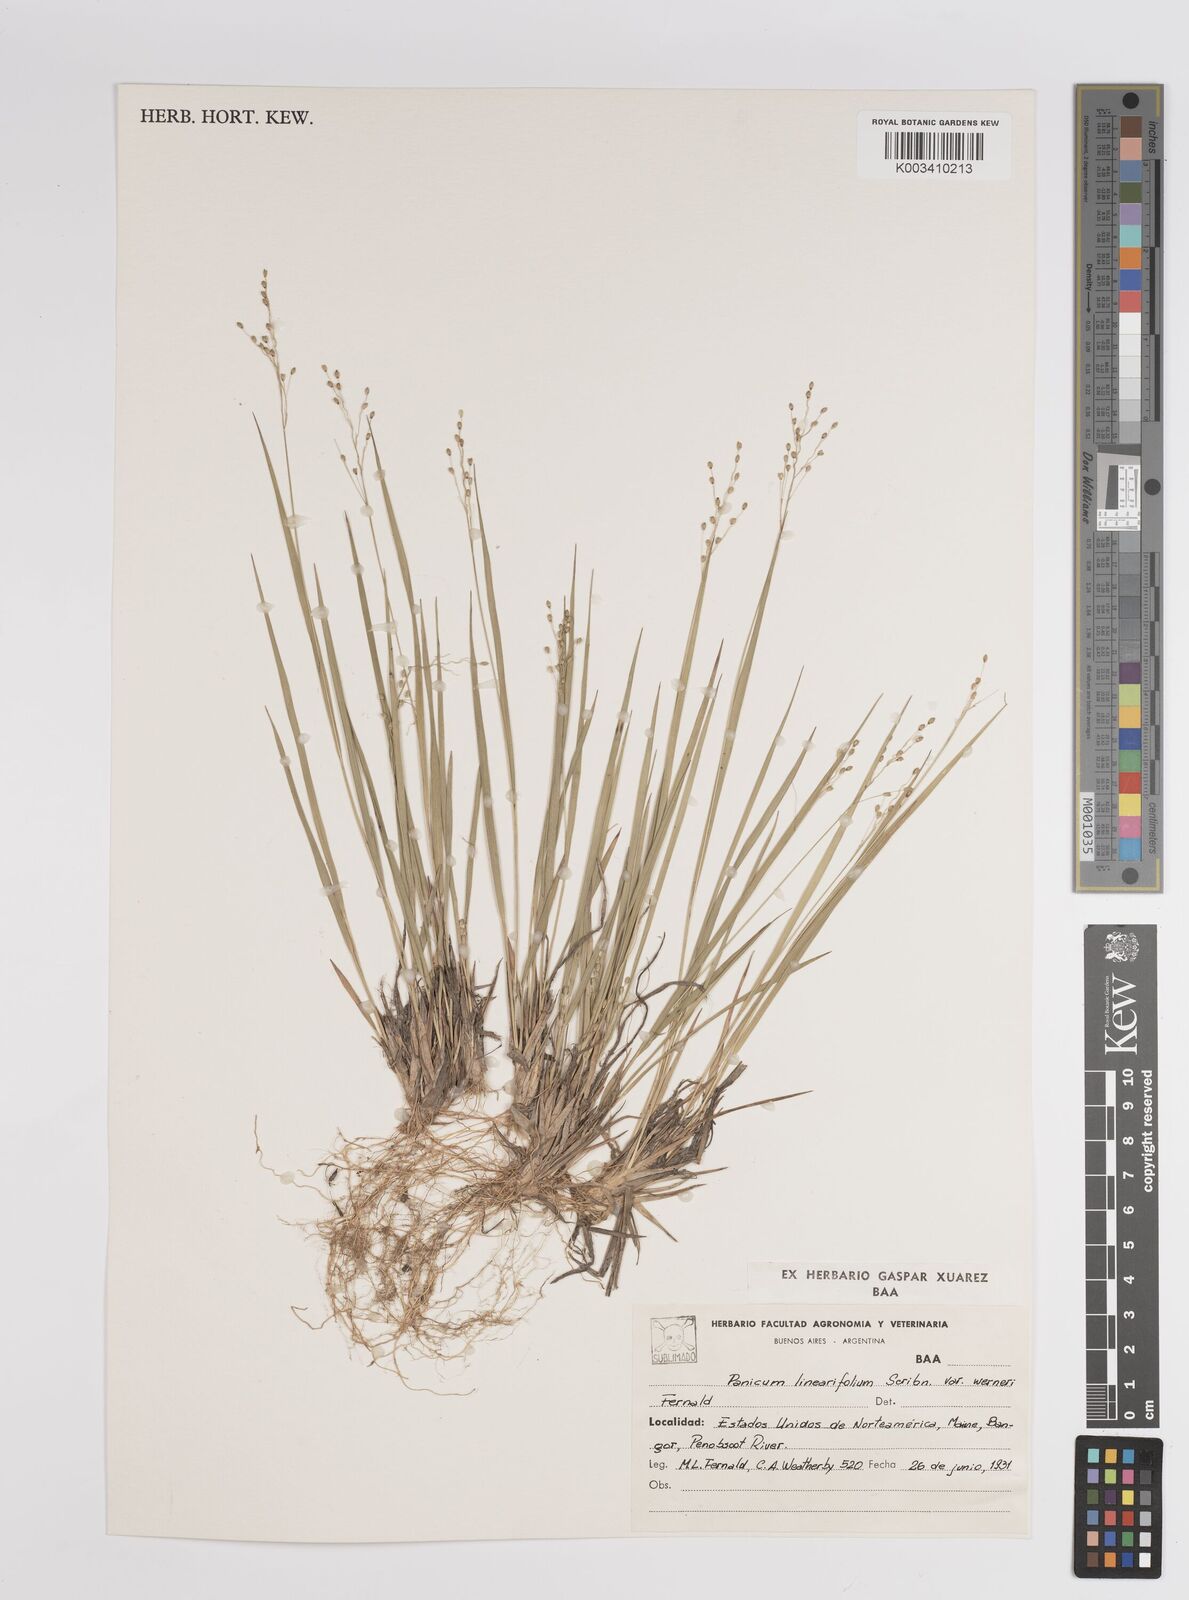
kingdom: Plantae
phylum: Tracheophyta
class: Liliopsida
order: Poales
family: Poaceae
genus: Dichanthelium
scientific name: Dichanthelium linearifolium
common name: Linear-leaved panicgrass
